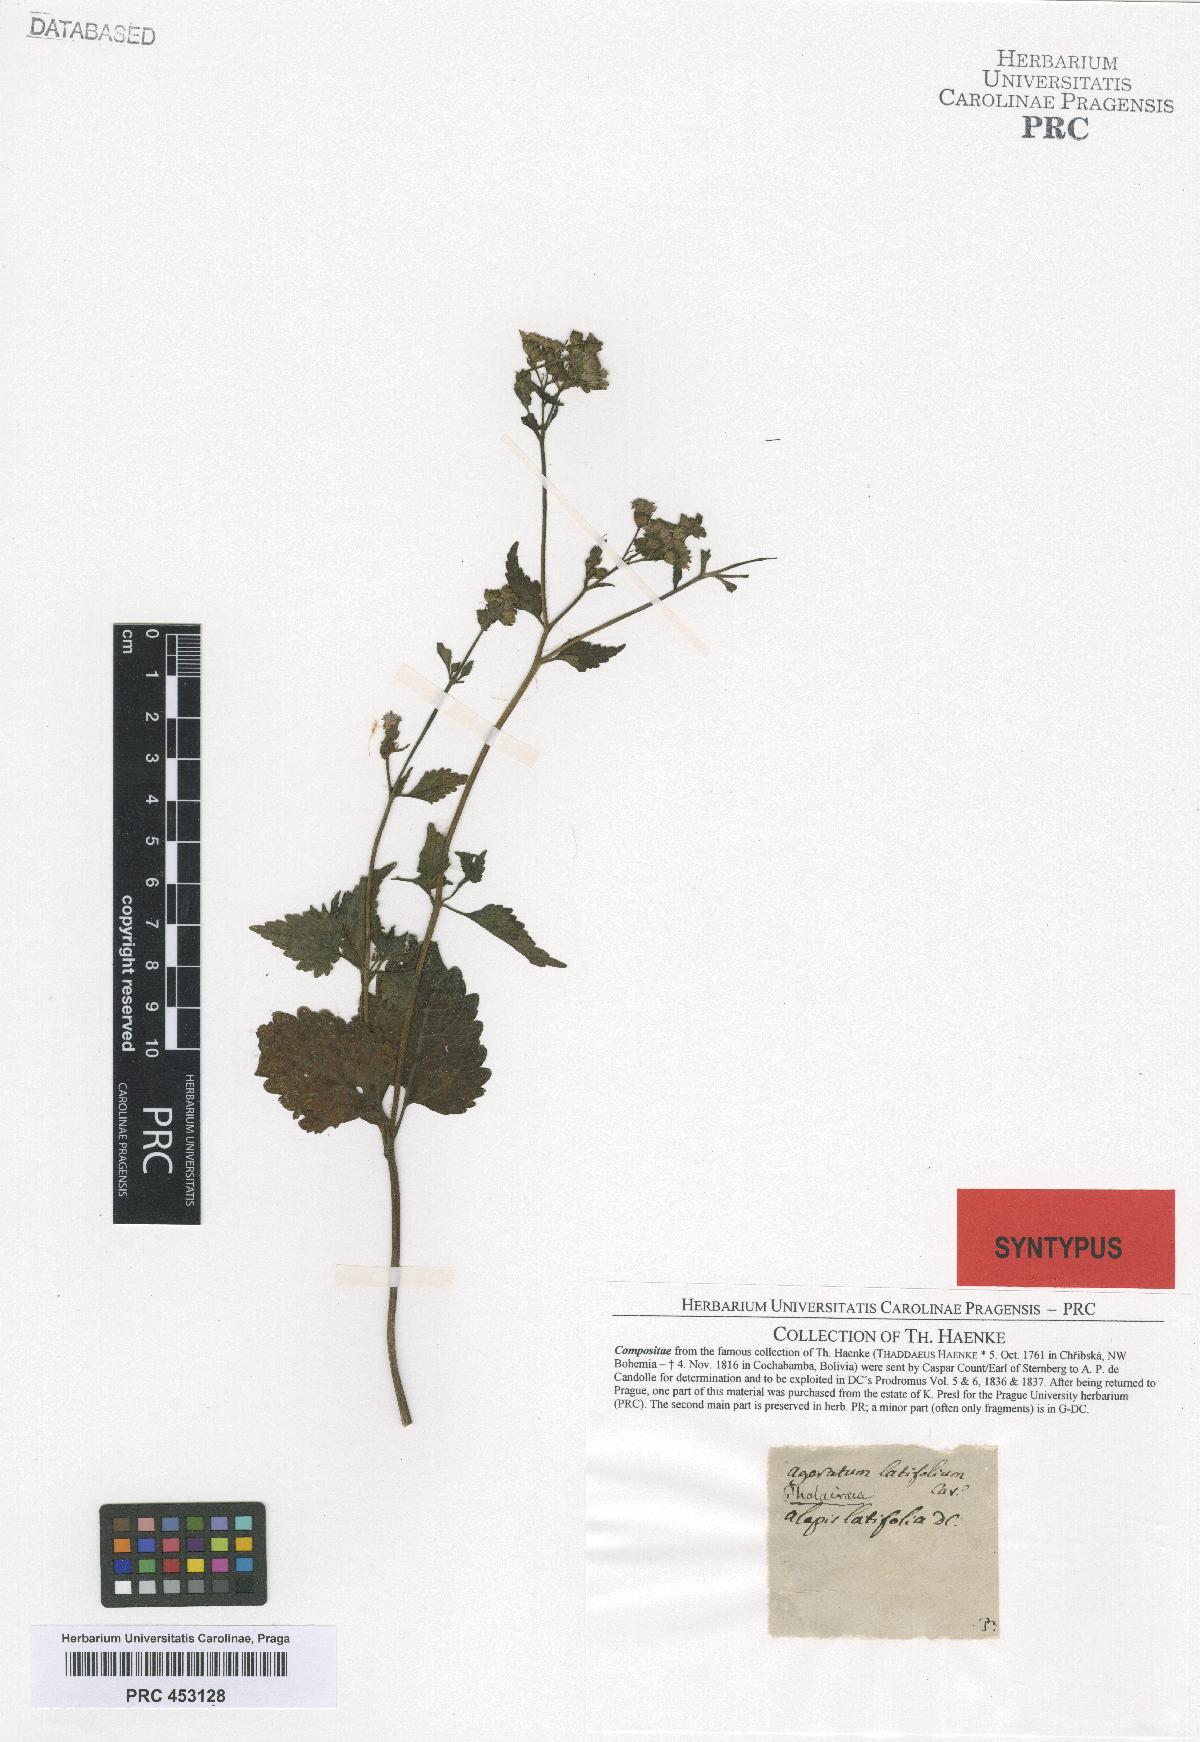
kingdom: Plantae
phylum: Tracheophyta
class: Magnoliopsida
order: Asterales
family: Asteraceae
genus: Ageratum
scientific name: Ageratum
